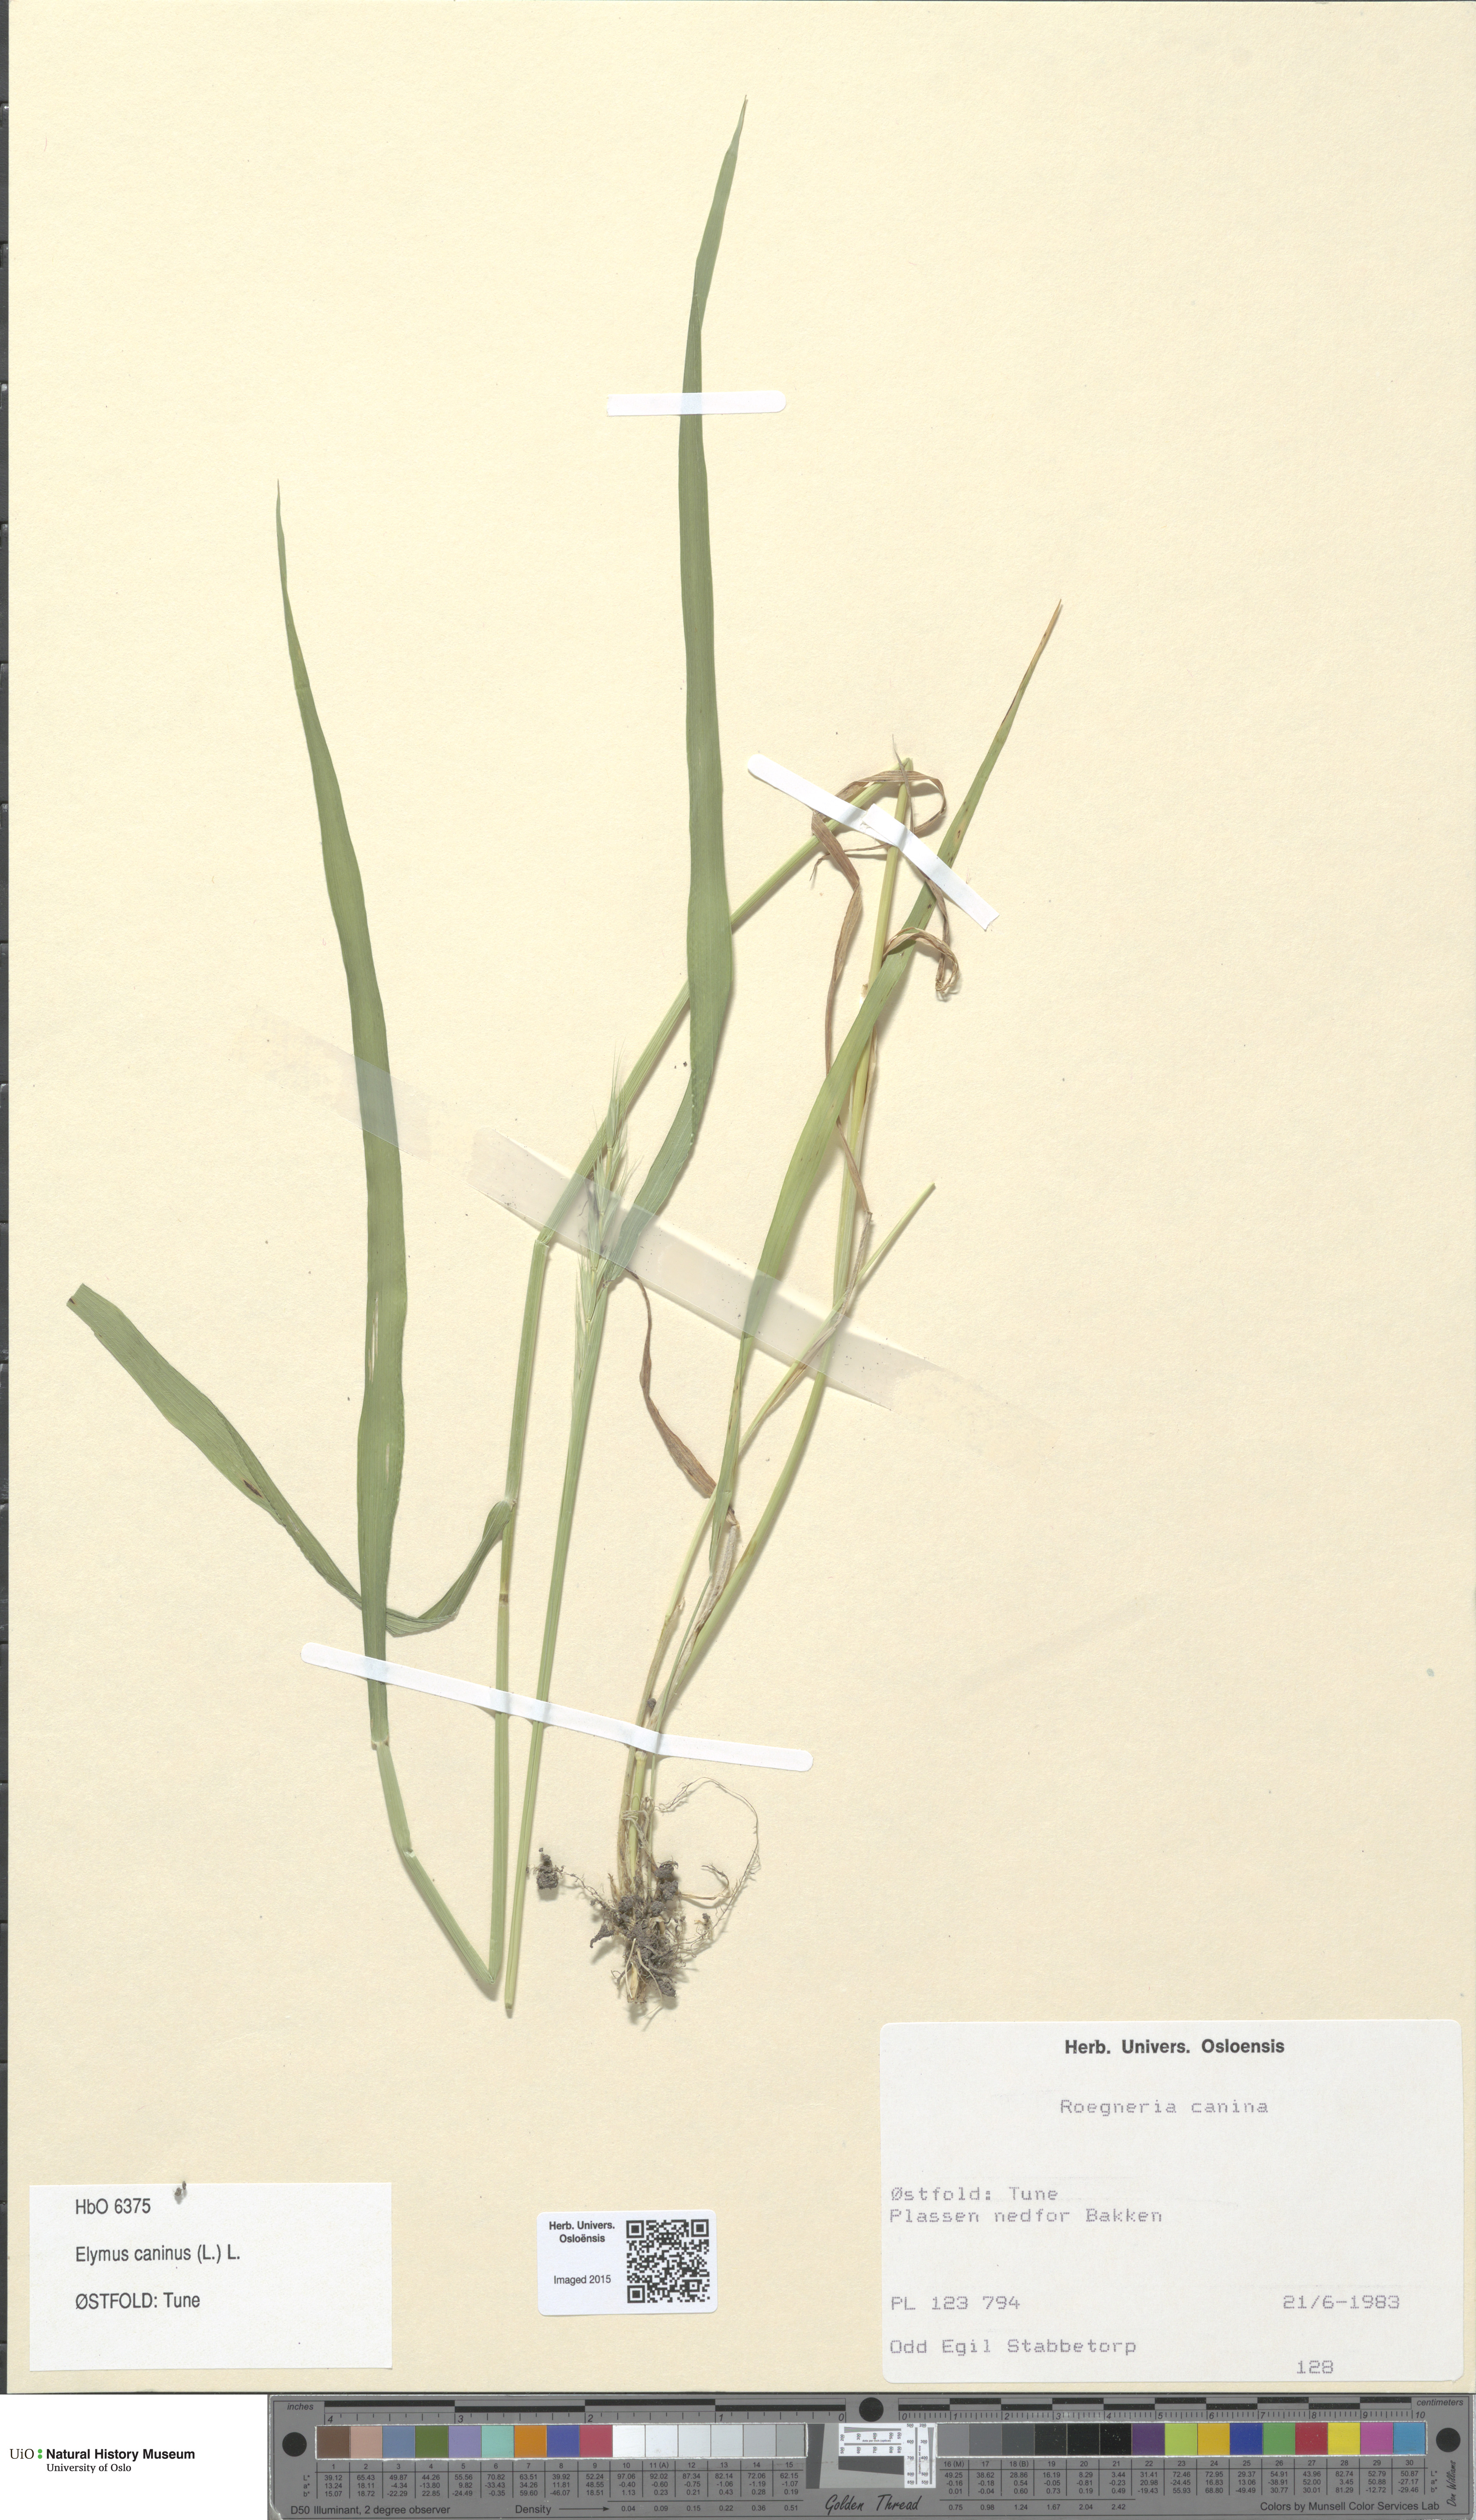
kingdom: Plantae
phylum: Tracheophyta
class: Liliopsida
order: Poales
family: Poaceae
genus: Elymus
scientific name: Elymus caninus
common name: Bearded couch
